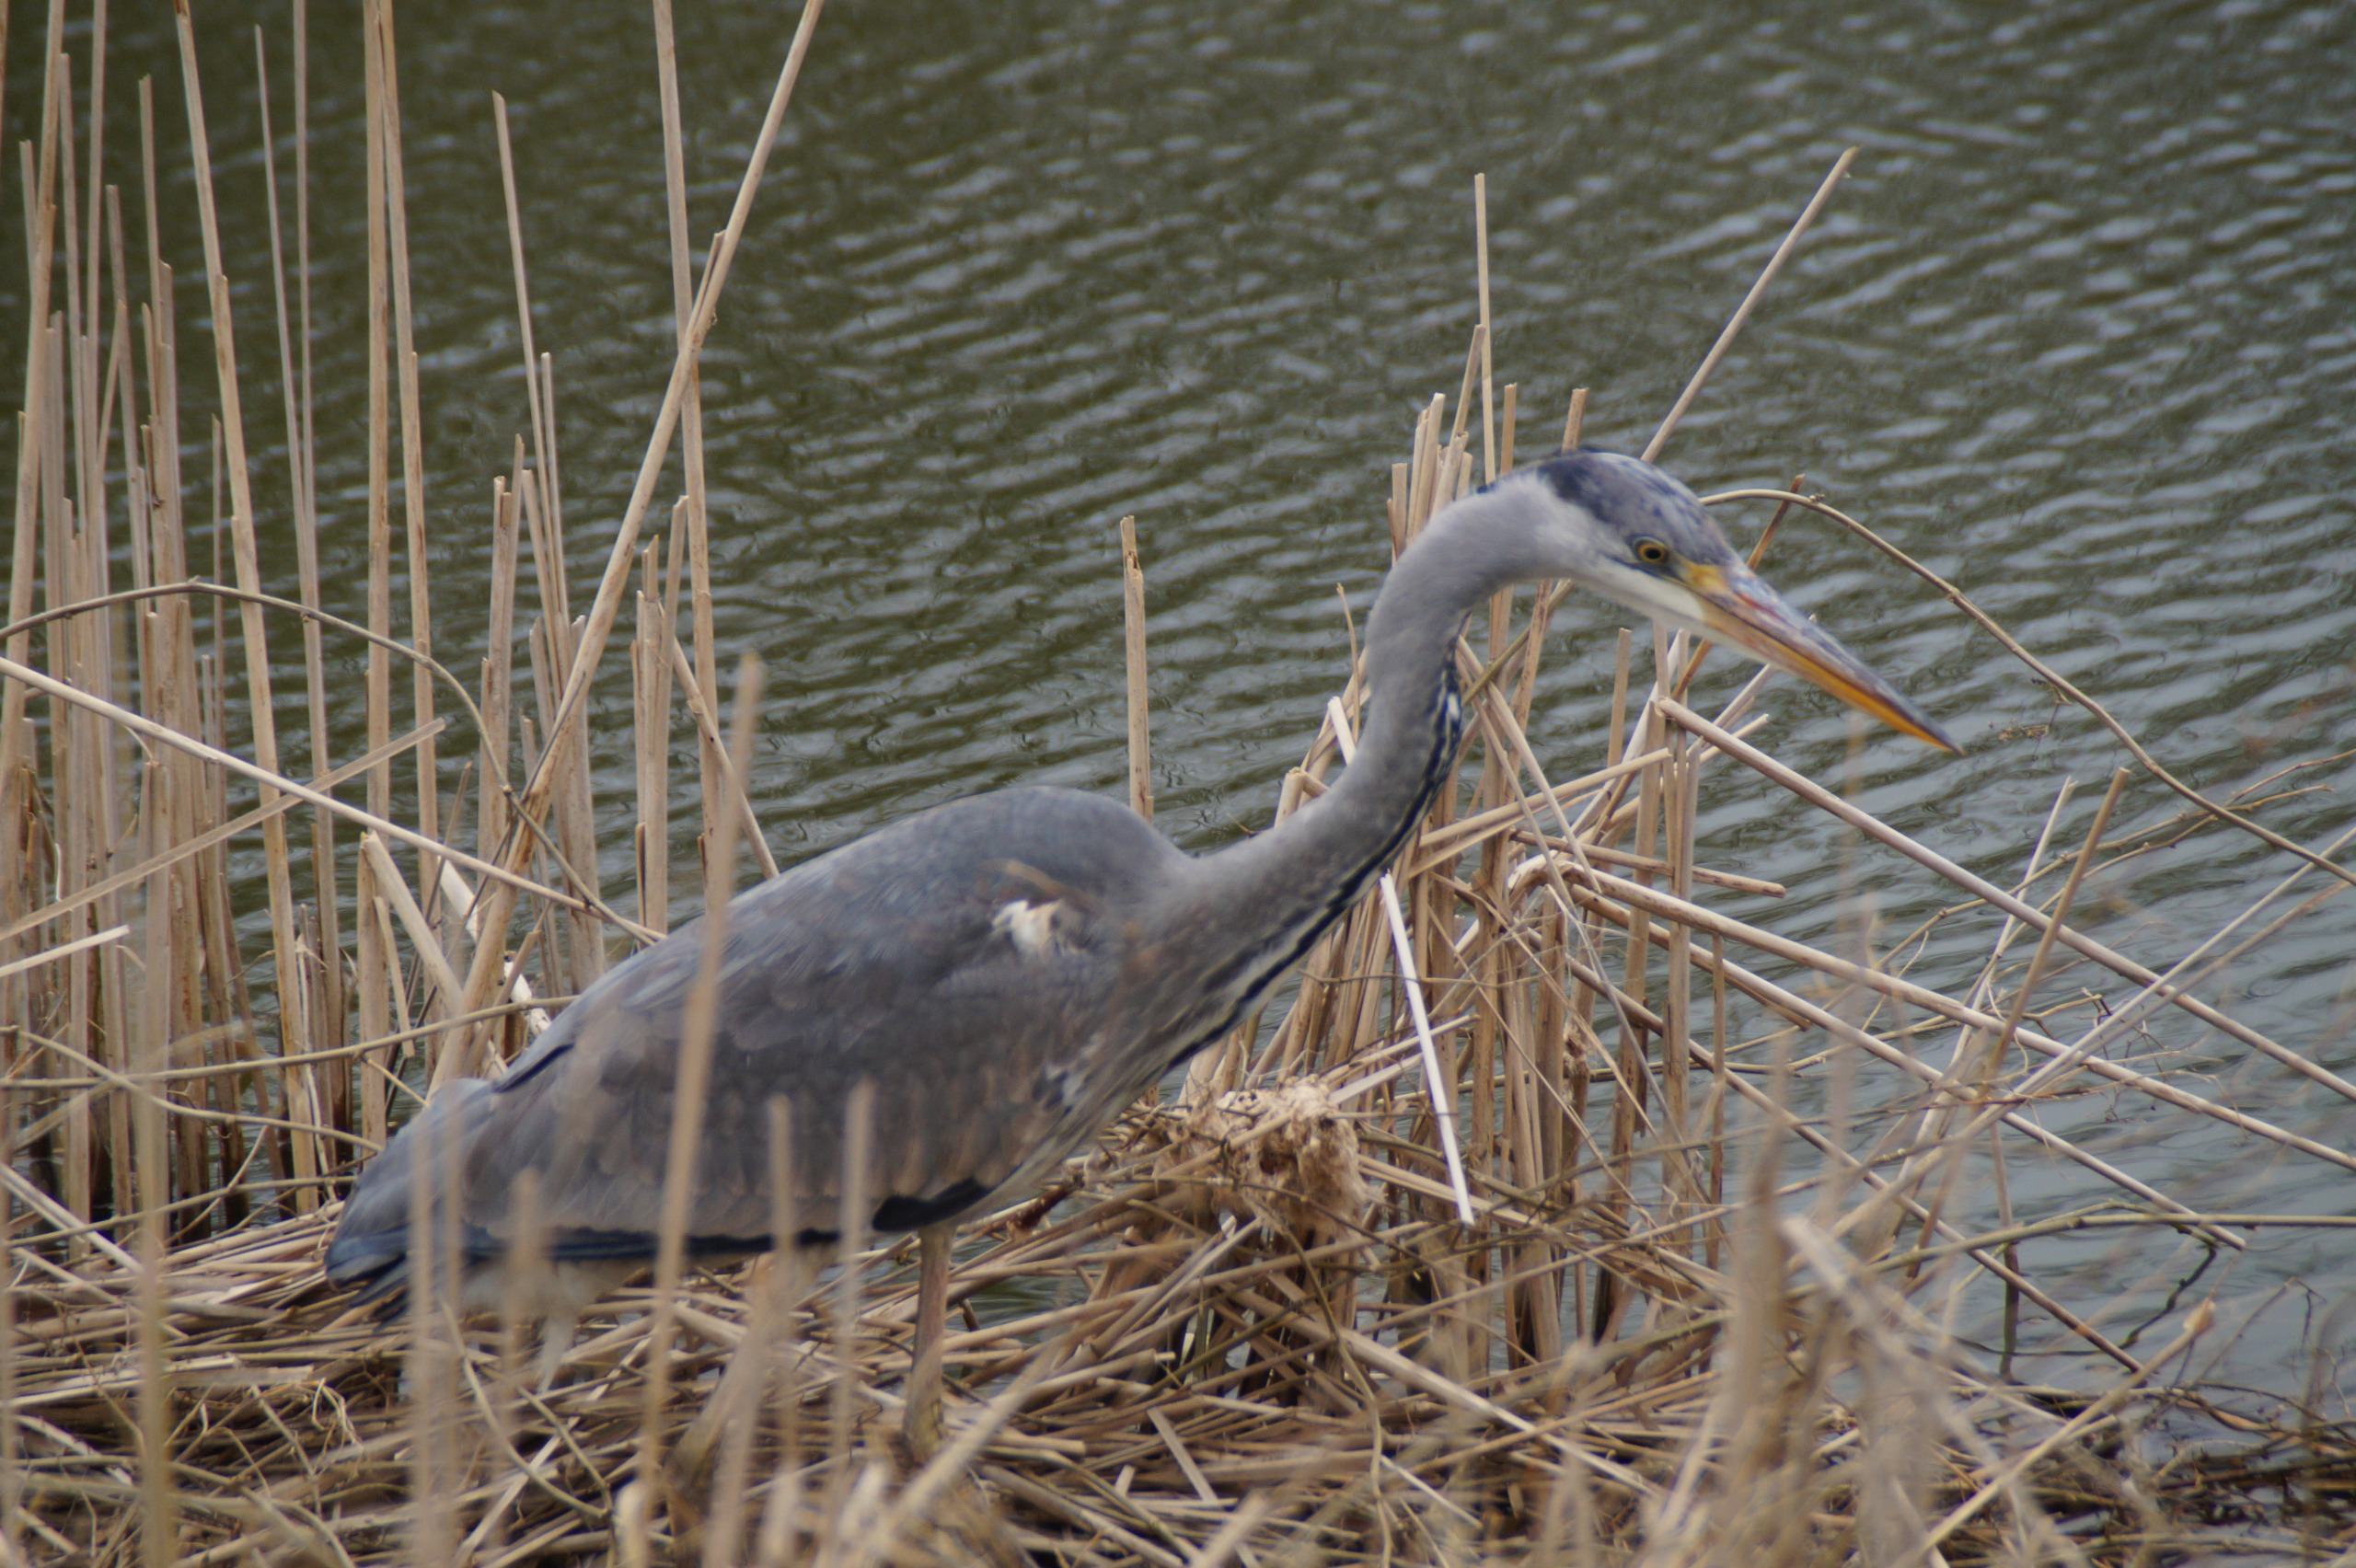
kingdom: Animalia
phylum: Chordata
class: Aves
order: Pelecaniformes
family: Ardeidae
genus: Ardea
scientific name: Ardea cinerea
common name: Fiskehejre
